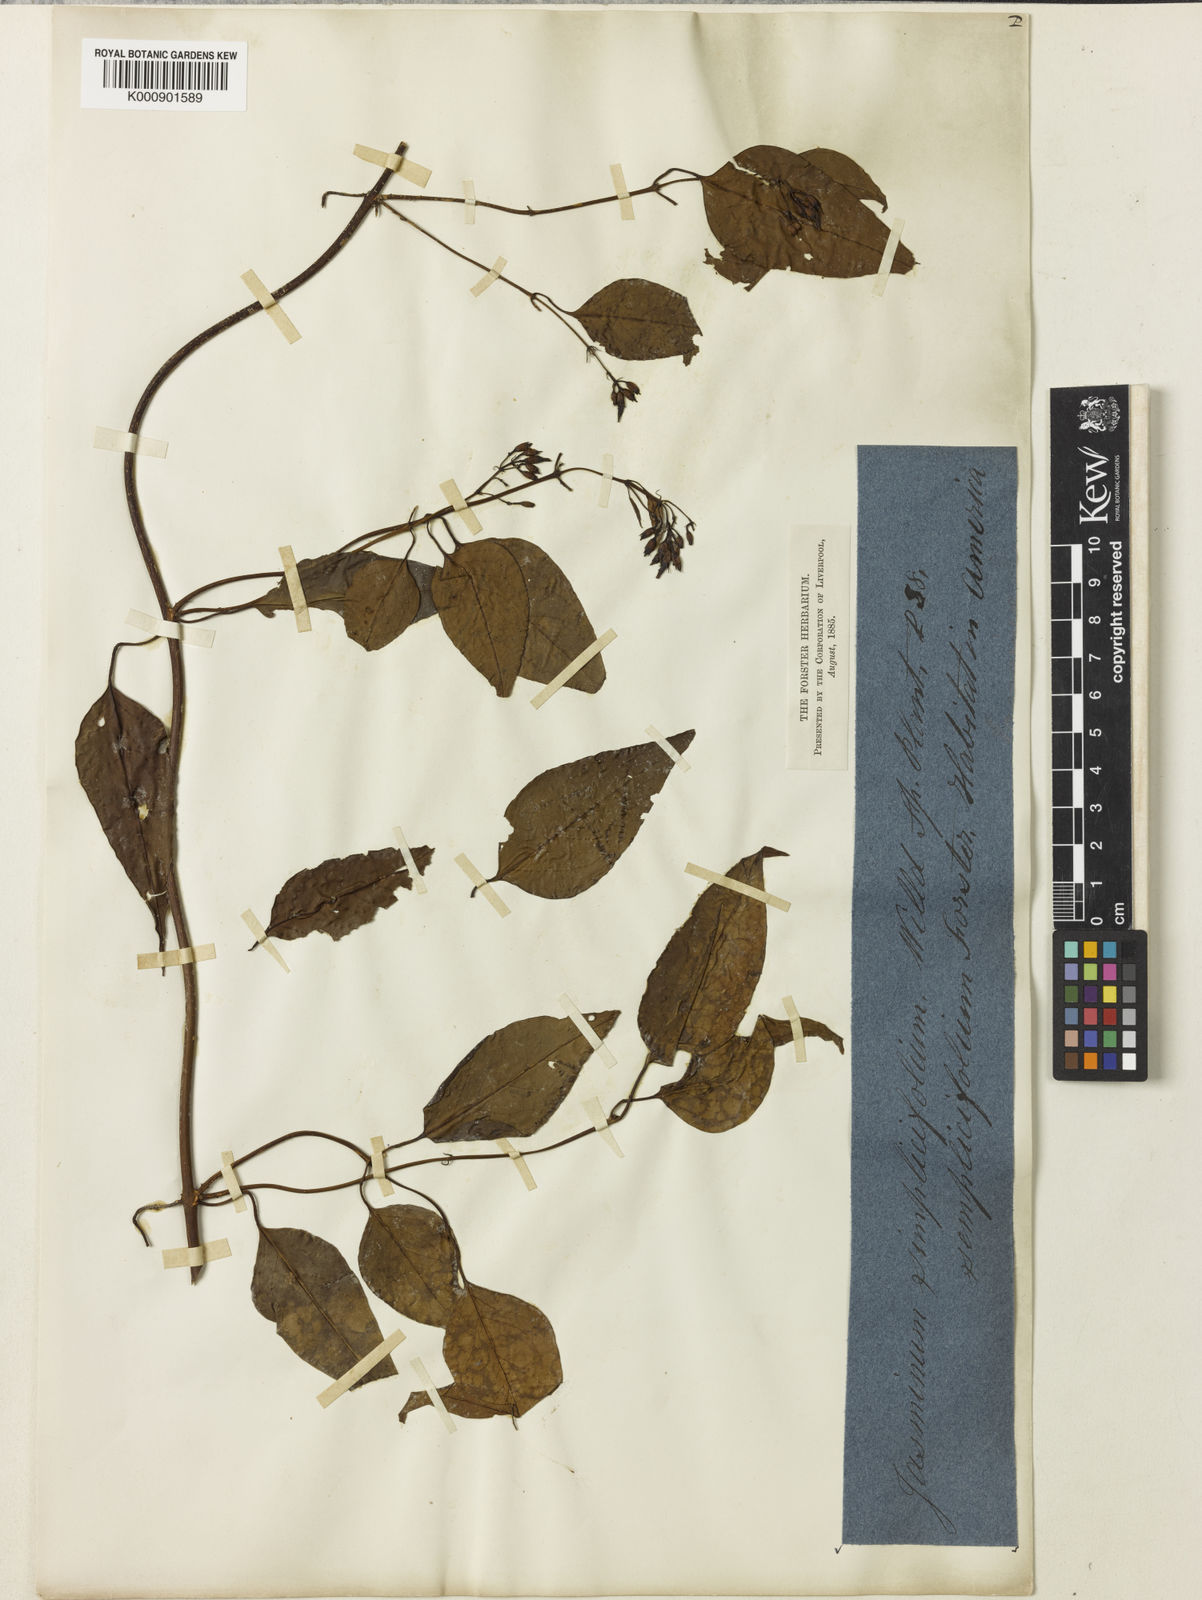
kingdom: Plantae
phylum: Tracheophyta
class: Magnoliopsida
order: Lamiales
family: Oleaceae
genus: Jasminum
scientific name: Jasminum simplicifolium
